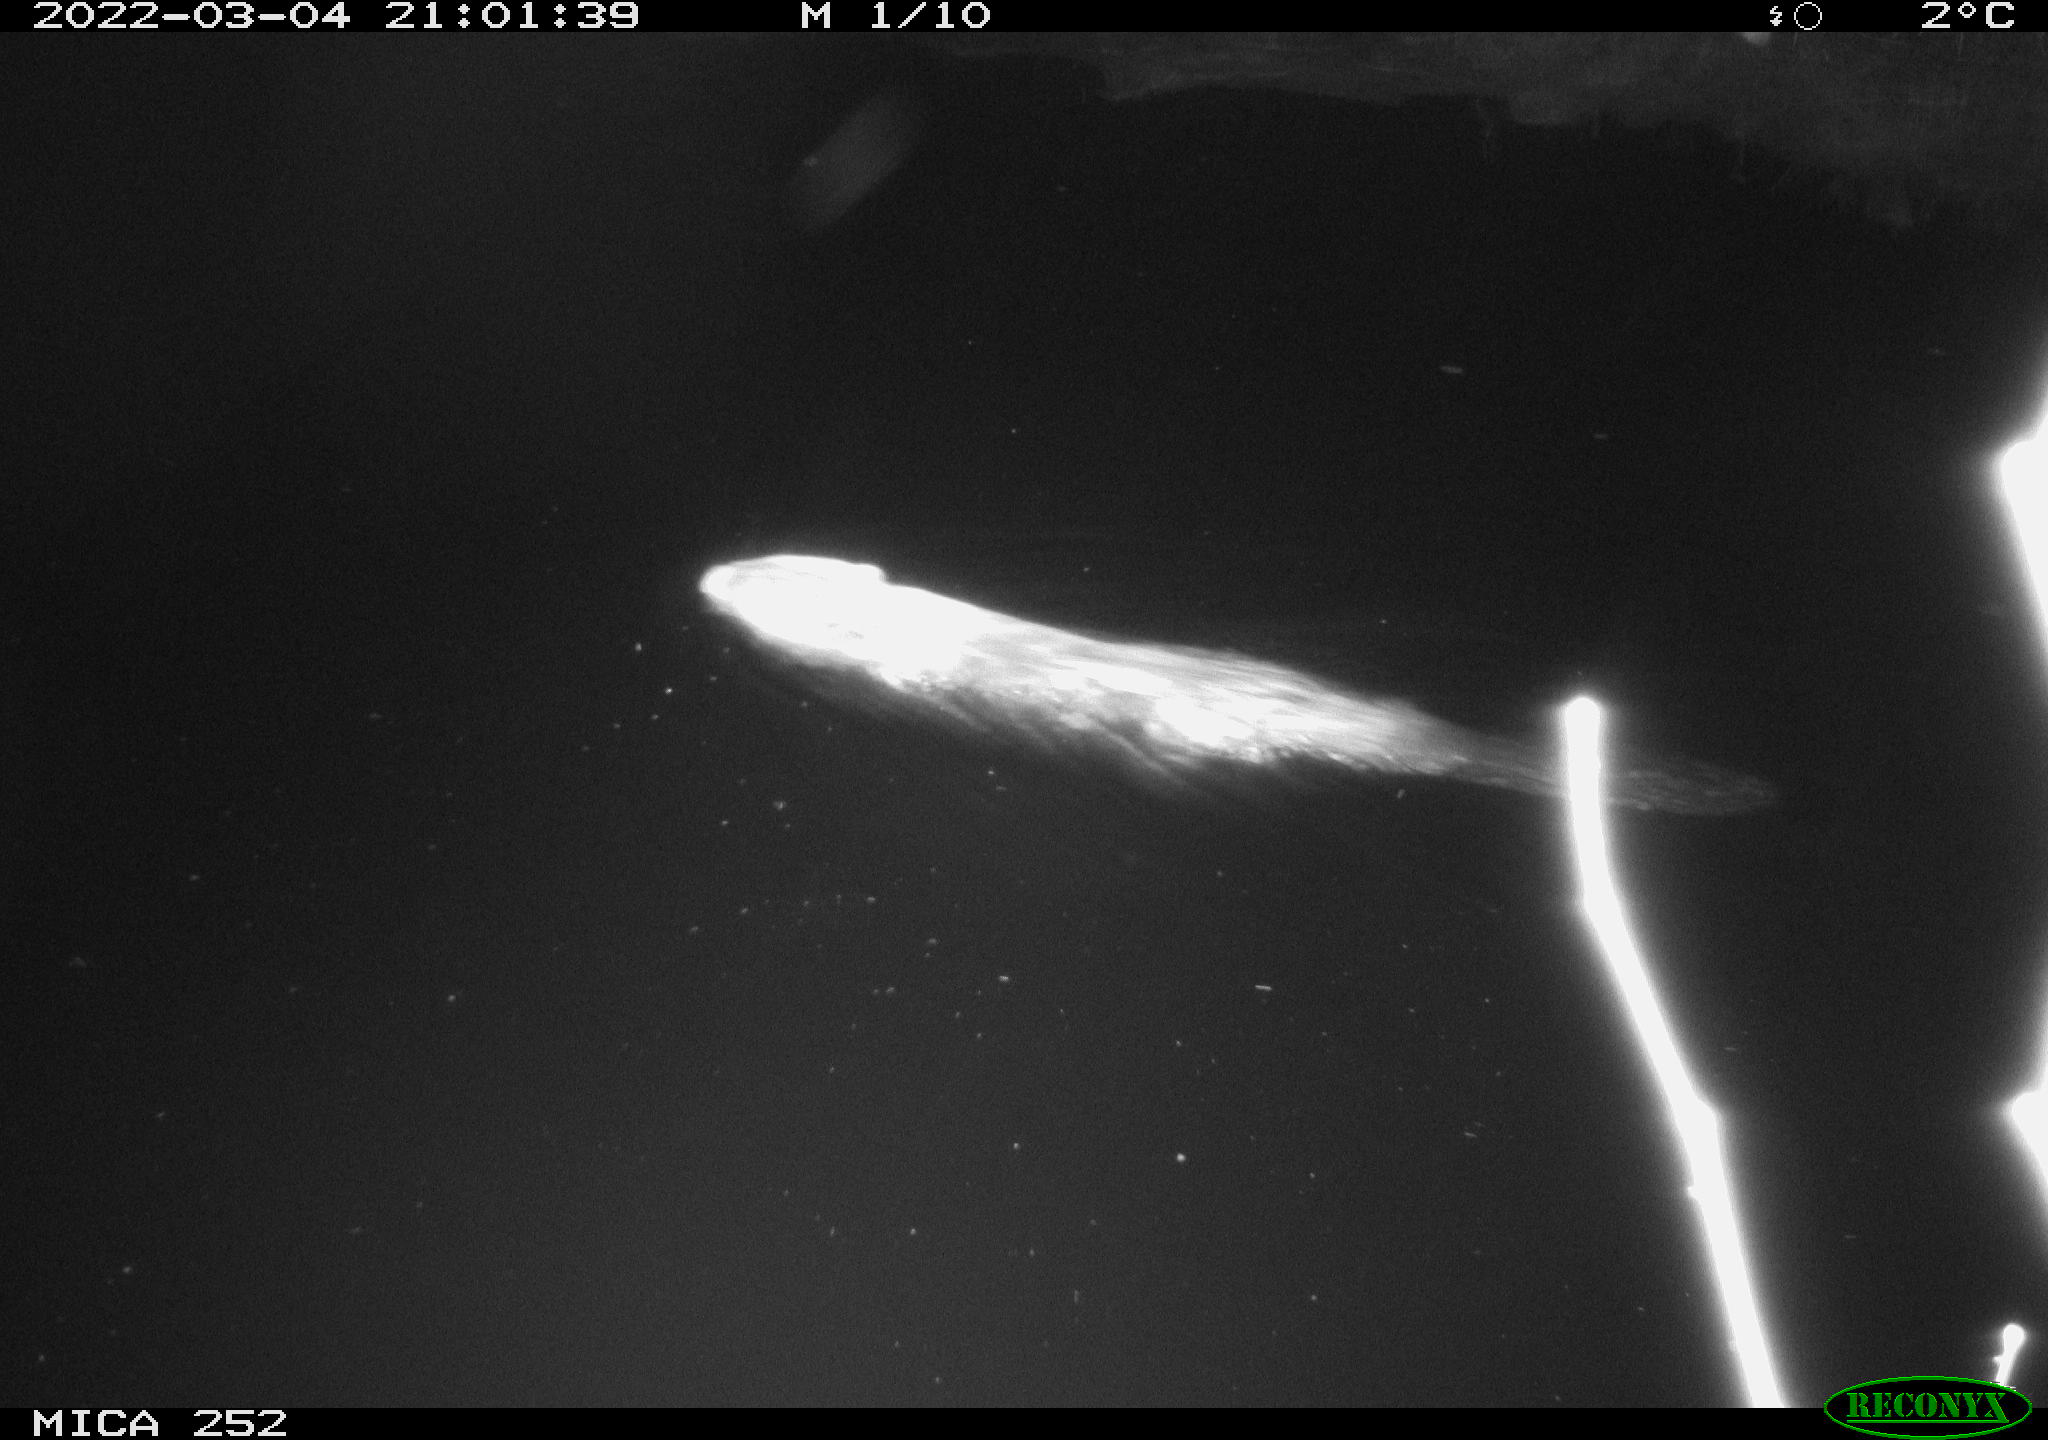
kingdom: Animalia
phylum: Chordata
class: Mammalia
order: Rodentia
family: Castoridae
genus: Castor
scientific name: Castor fiber
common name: Eurasian beaver
